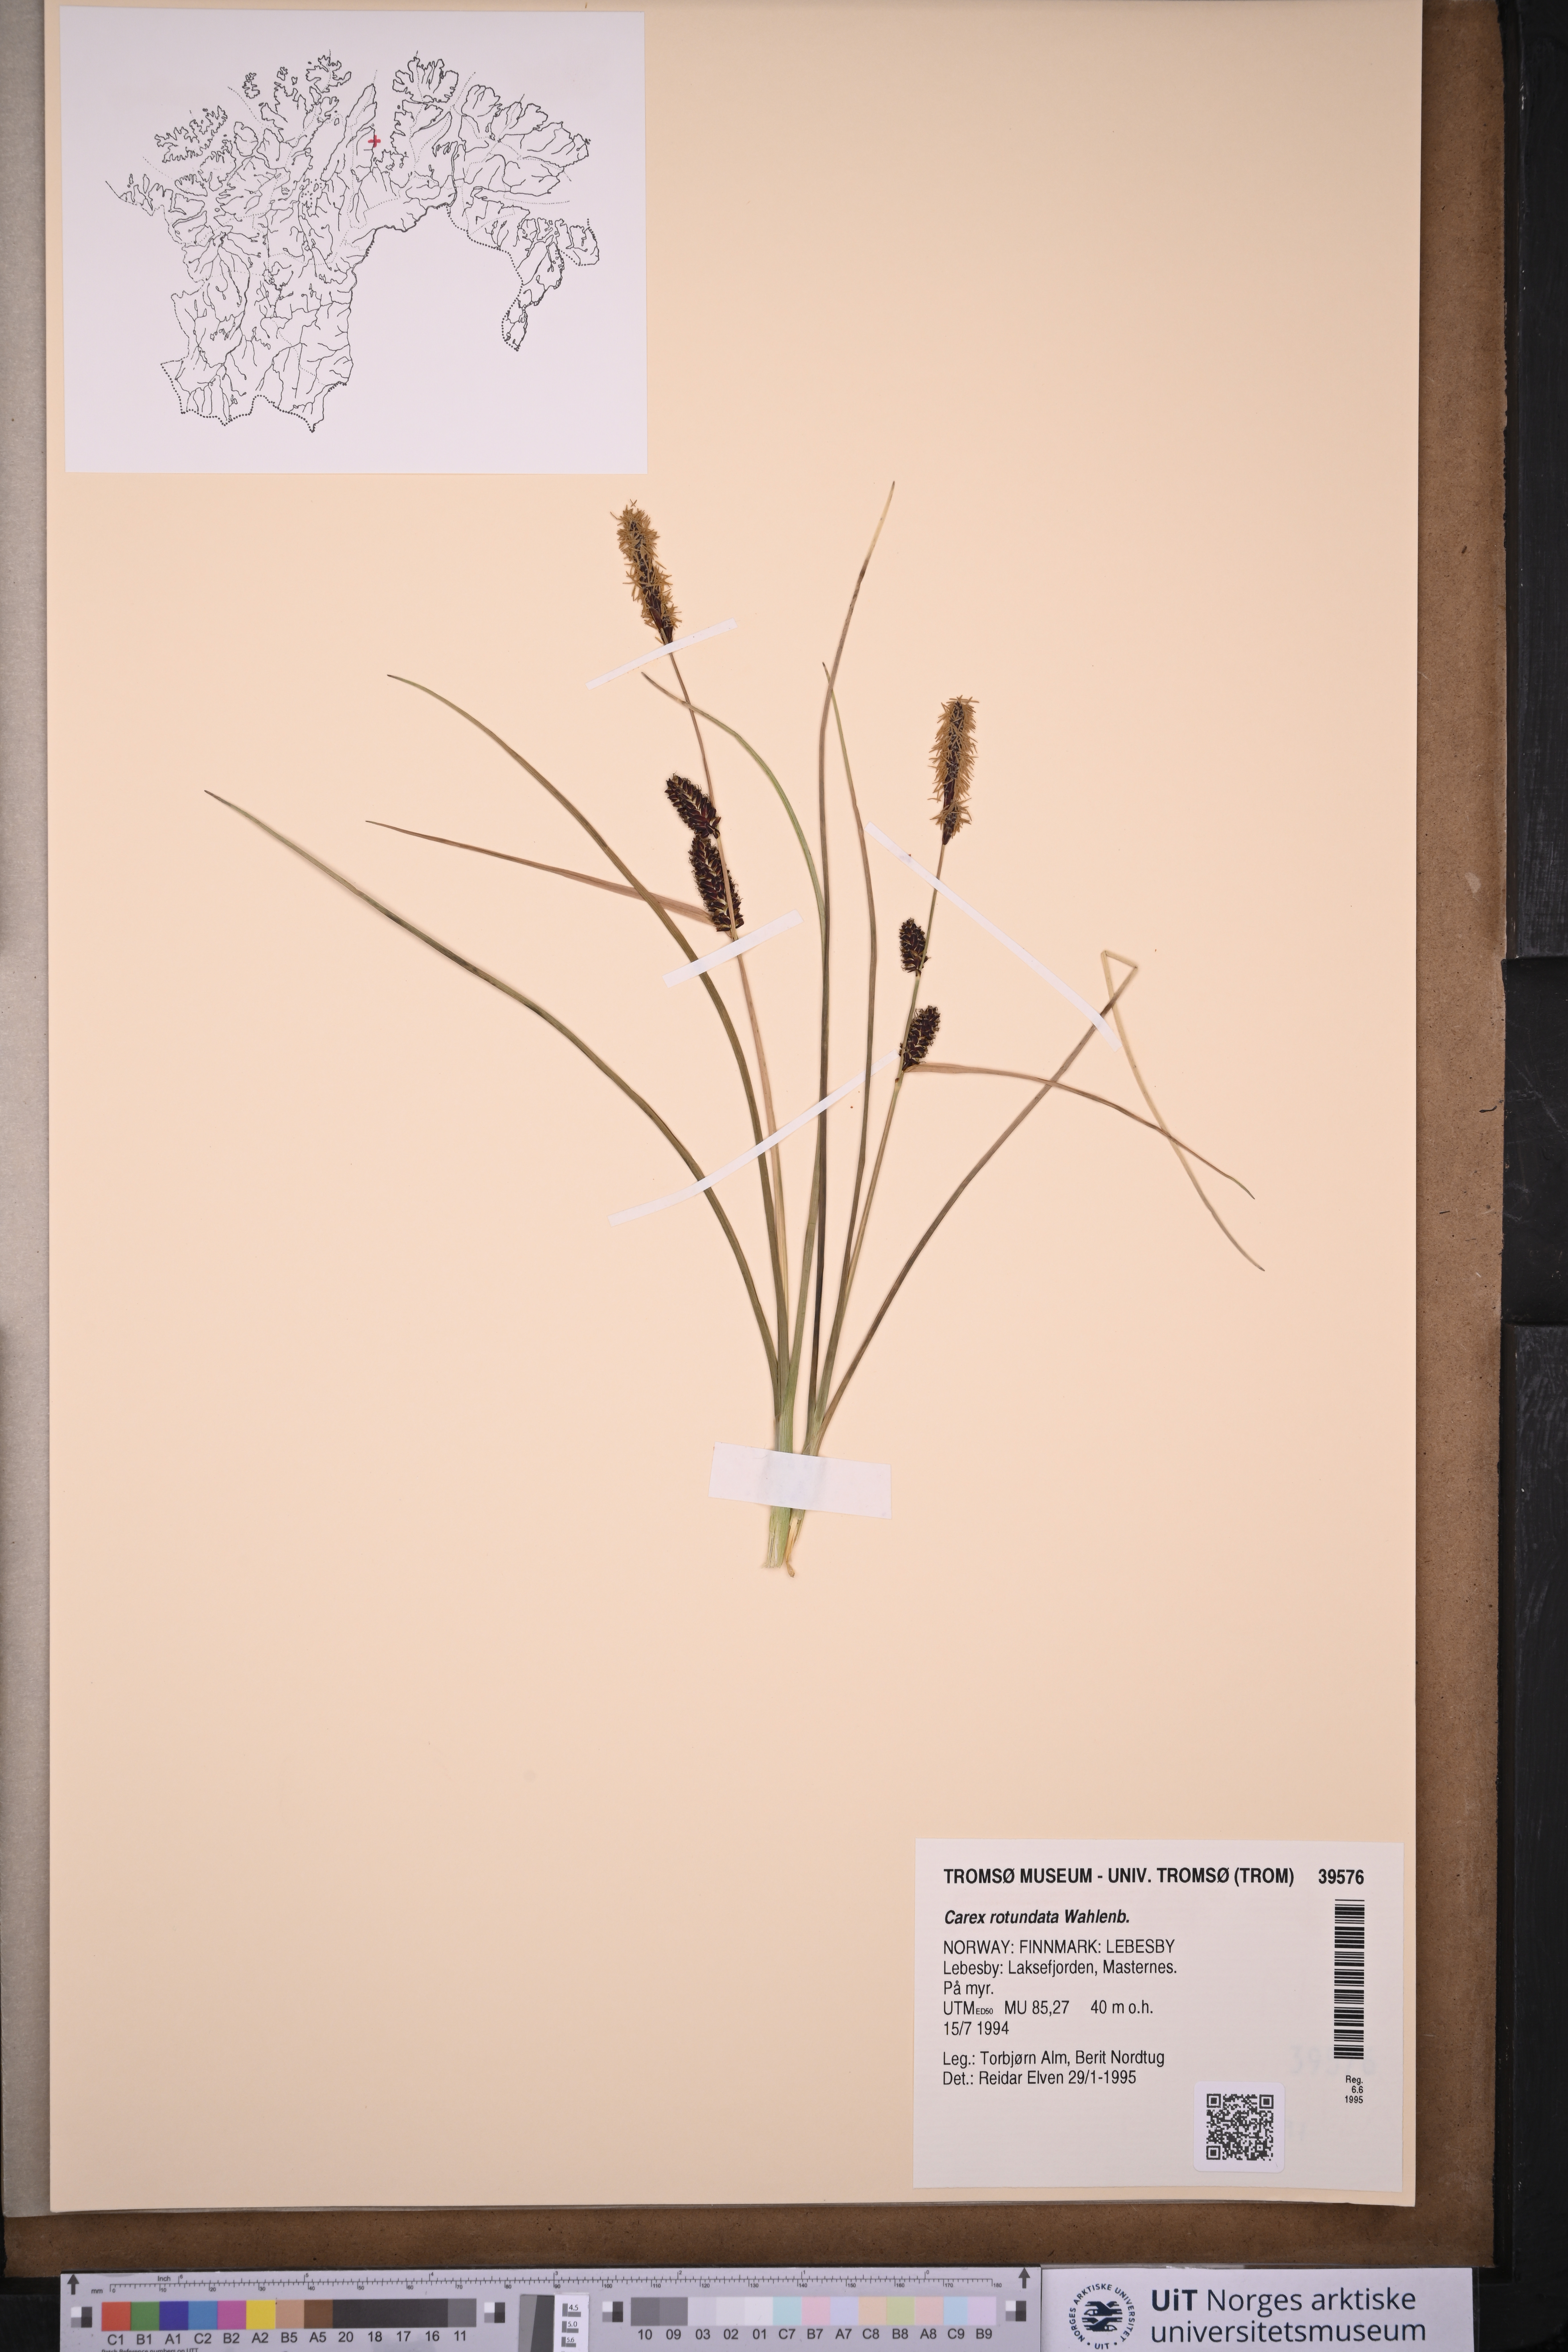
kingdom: Plantae
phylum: Tracheophyta
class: Liliopsida
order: Poales
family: Cyperaceae
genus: Carex
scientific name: Carex rotundata
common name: Round-fruited sedge
